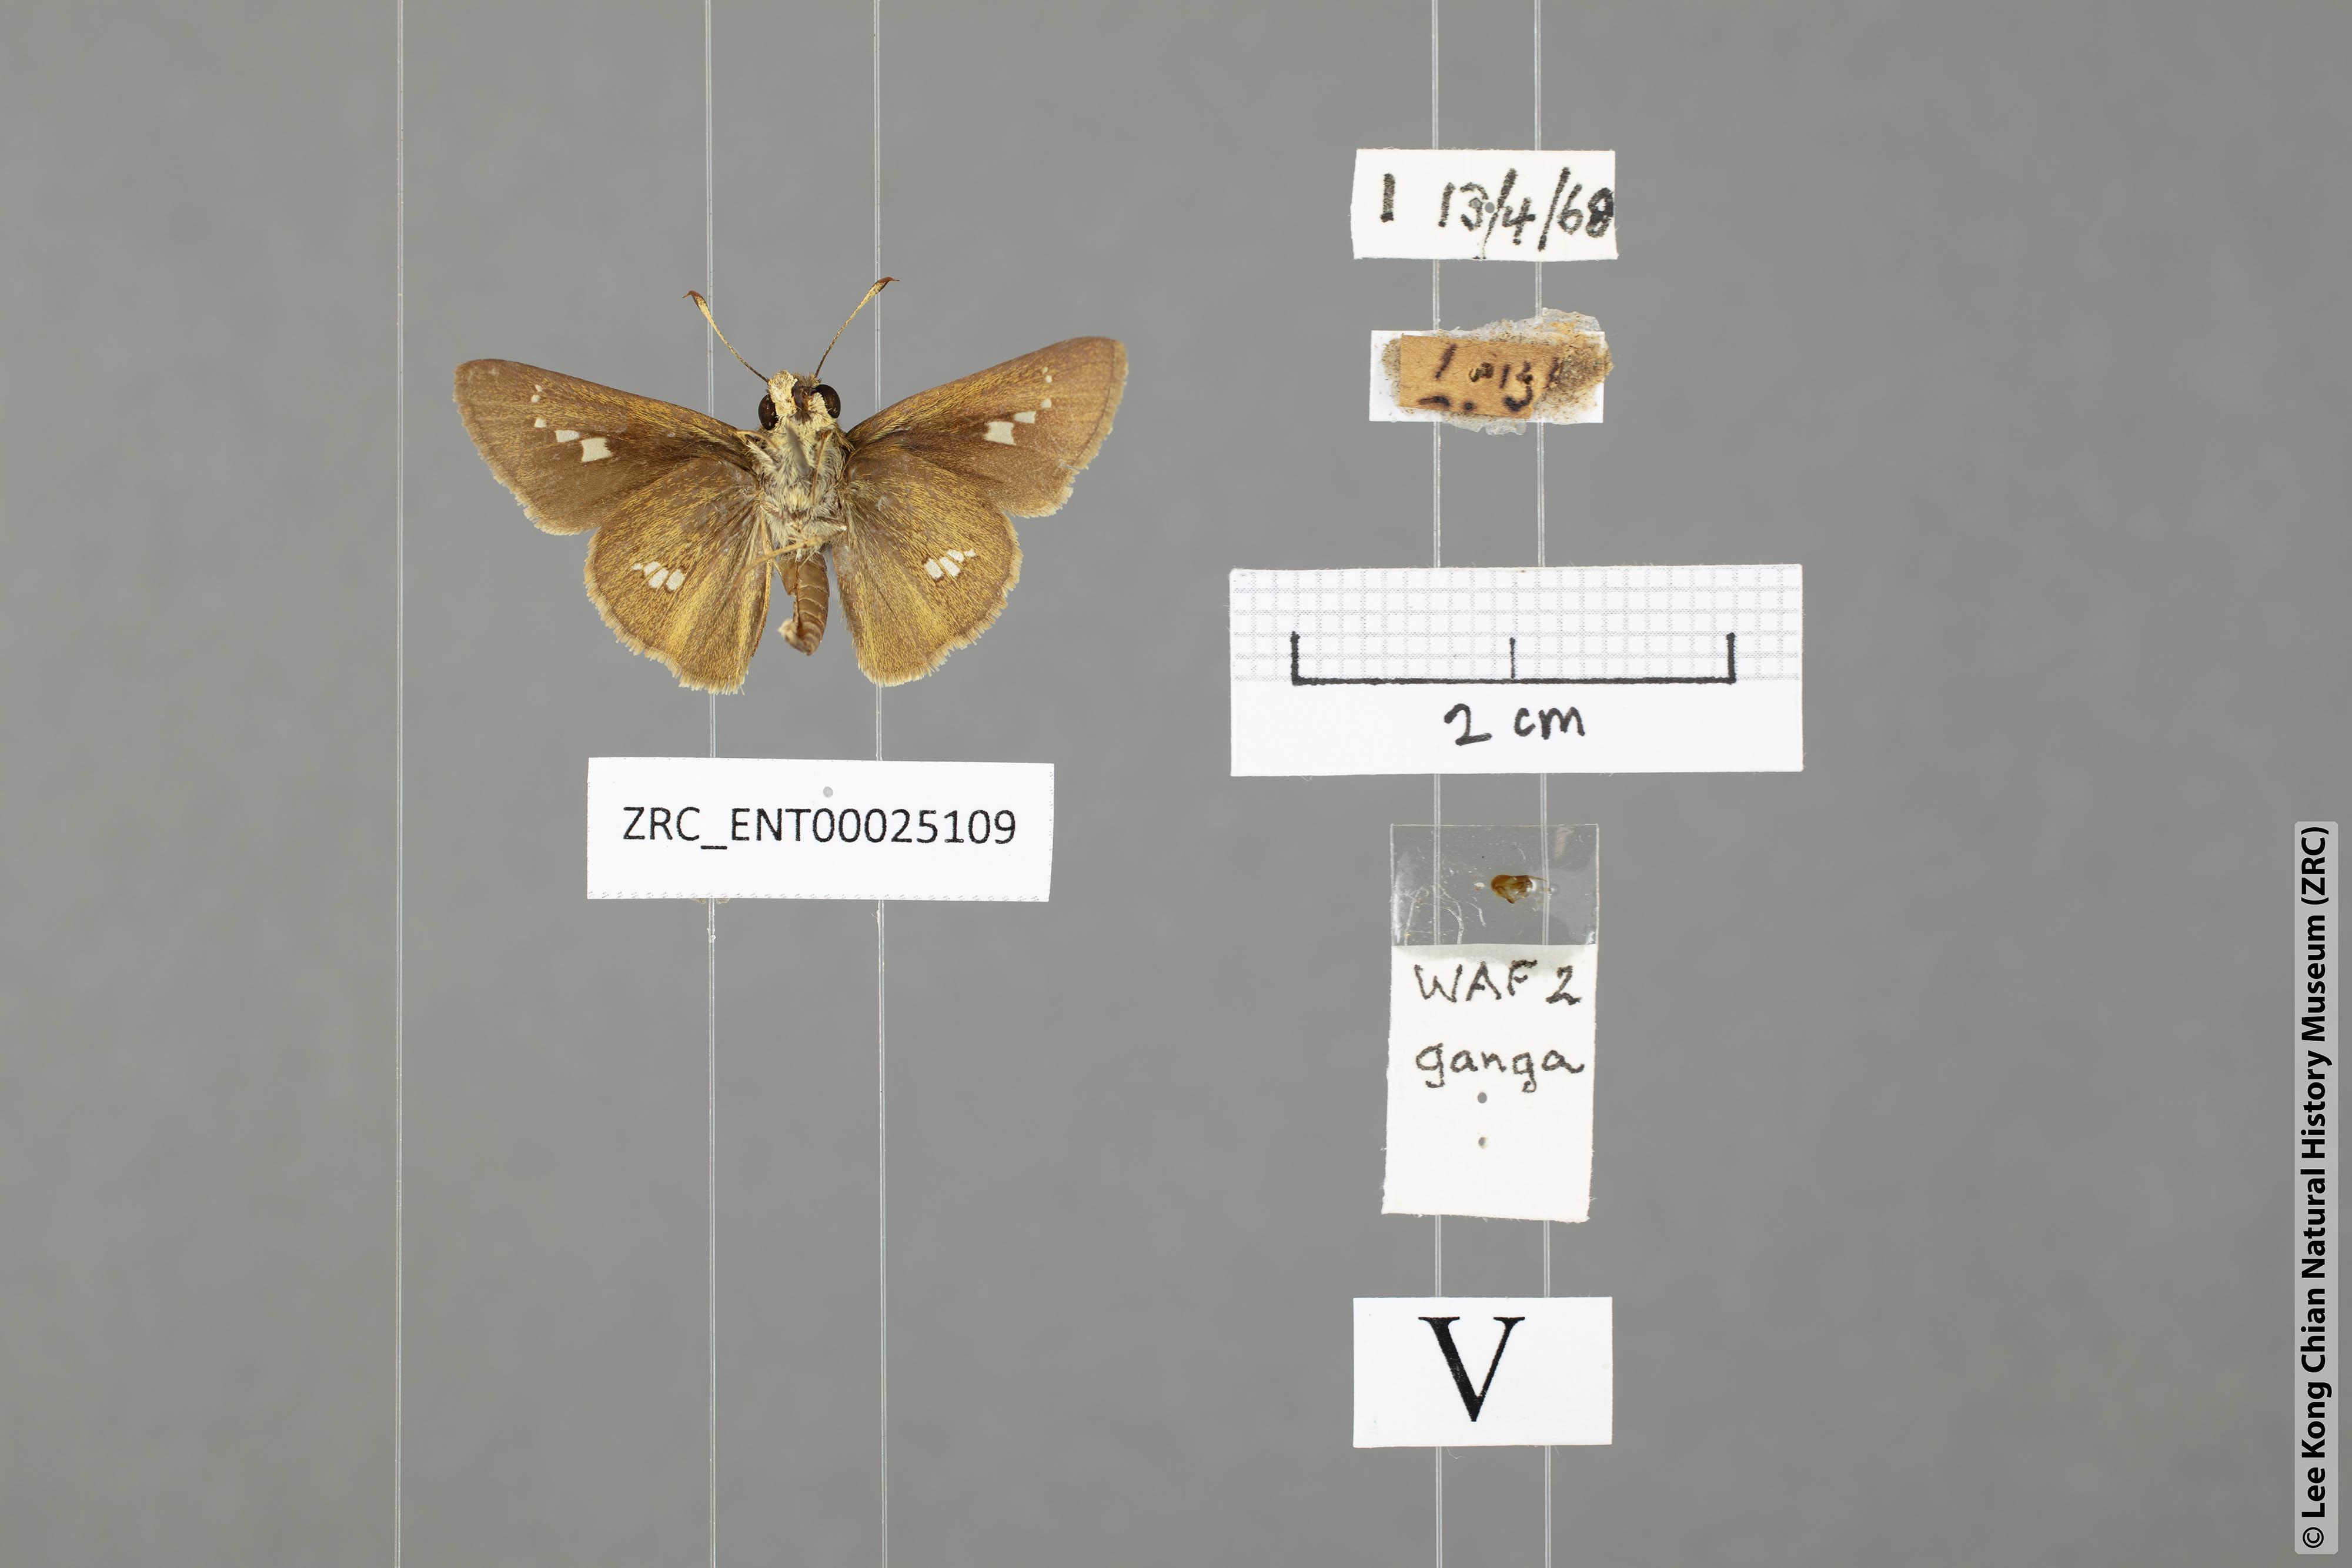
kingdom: Animalia
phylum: Arthropoda
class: Insecta
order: Lepidoptera
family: Hesperiidae
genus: Parnara
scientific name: Parnara ganga
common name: Continental swift
